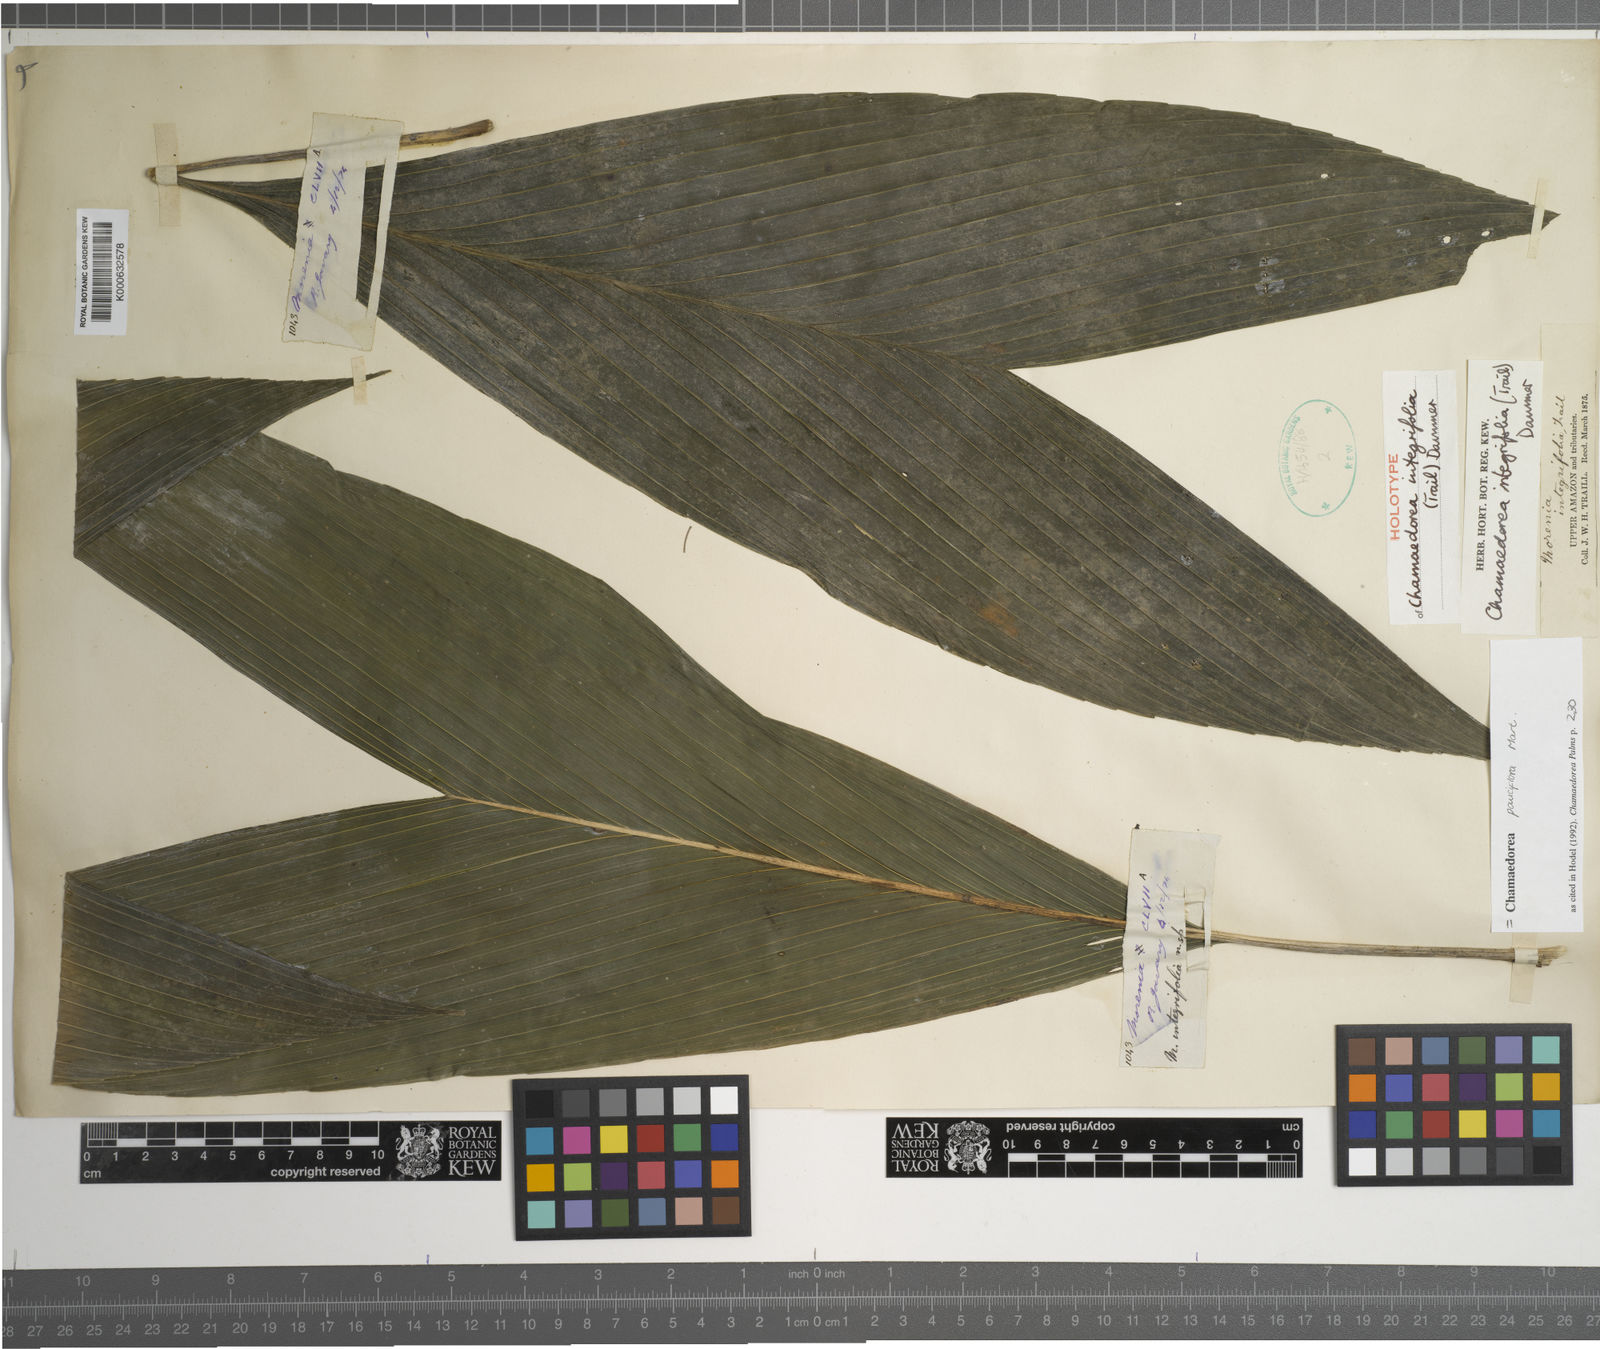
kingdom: Plantae
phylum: Tracheophyta
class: Liliopsida
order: Arecales
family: Arecaceae
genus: Chamaedorea
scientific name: Chamaedorea pauciflora
